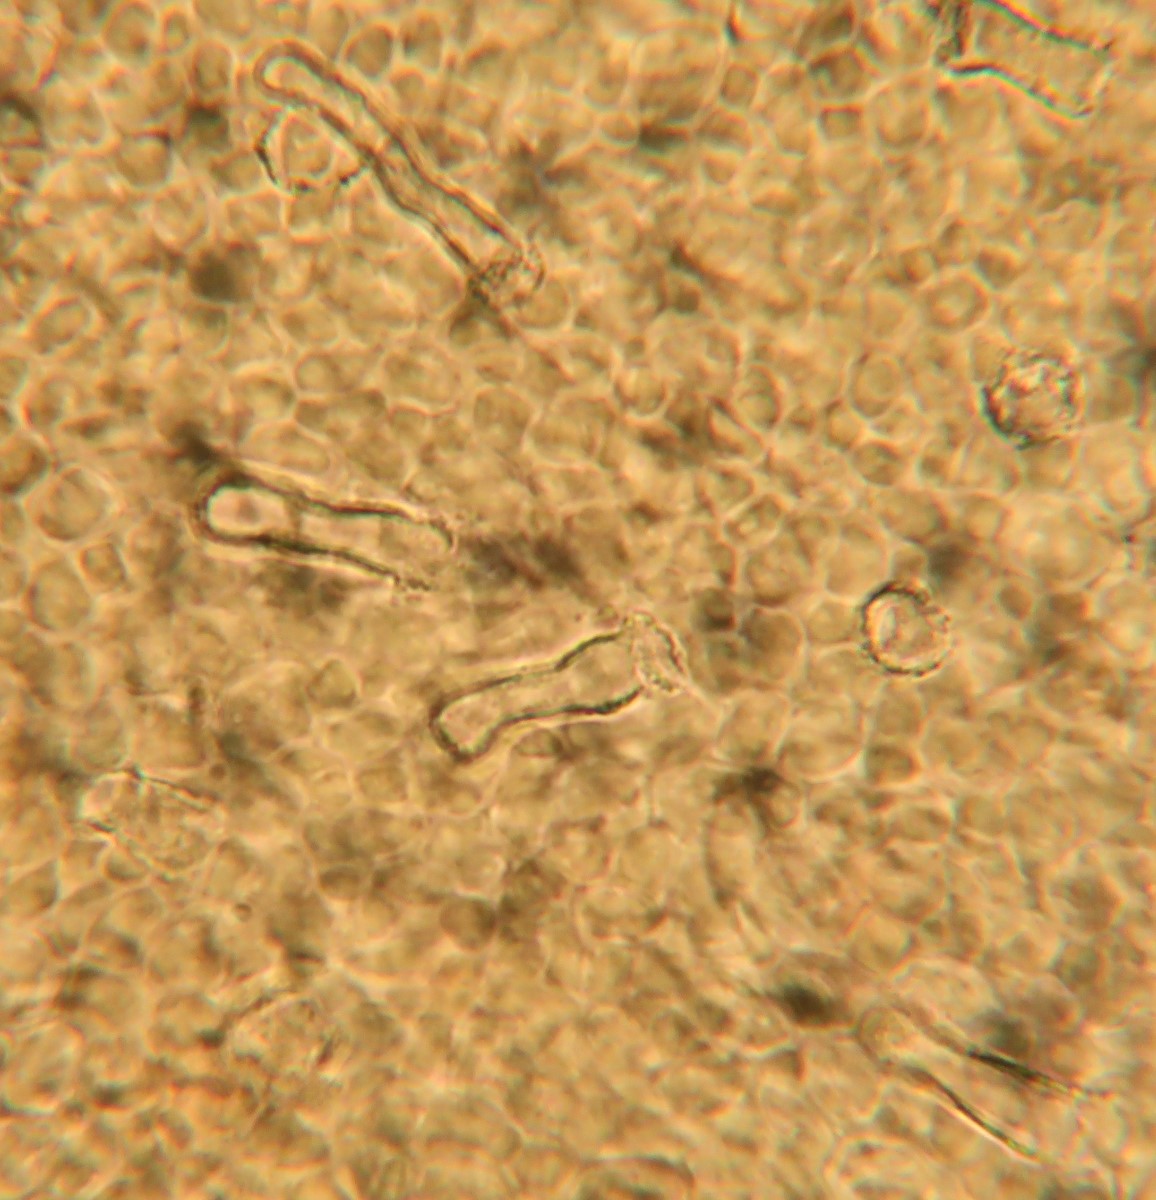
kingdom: Fungi
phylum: Basidiomycota
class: Agaricomycetes
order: Agaricales
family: Physalacriaceae
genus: Rhizomarasmius
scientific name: Rhizomarasmius setosus
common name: bøgeblads-bruskhat
